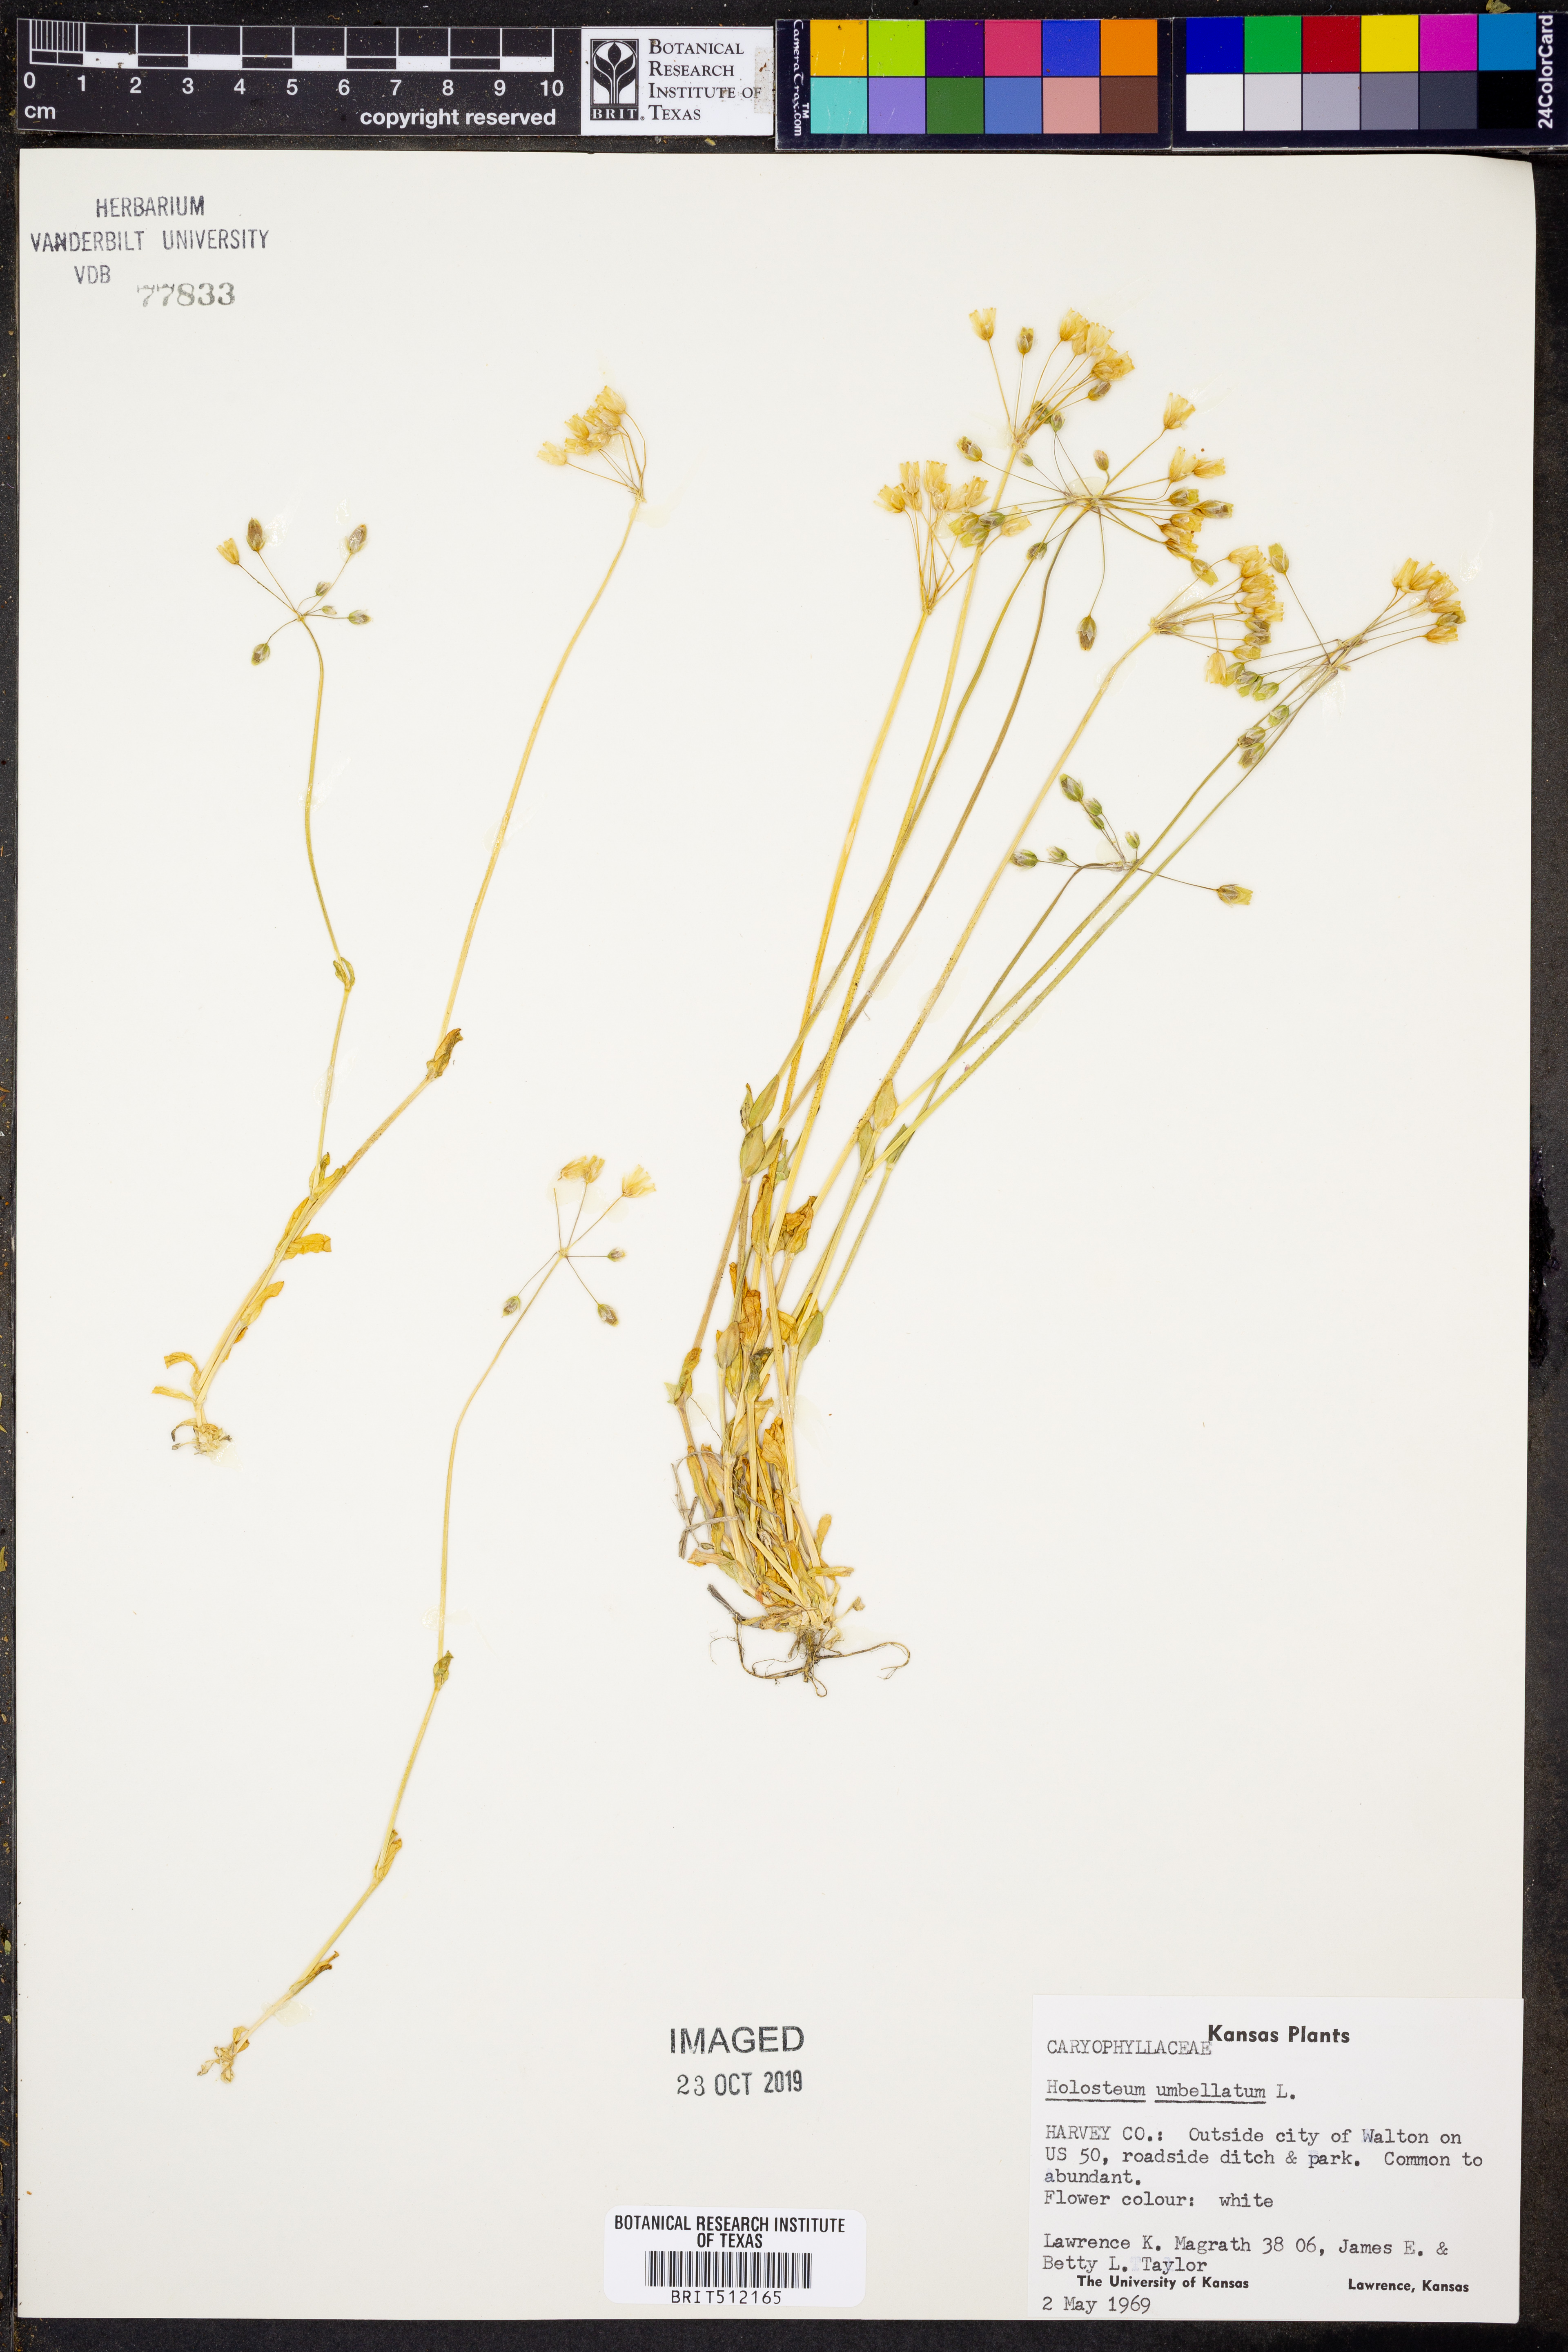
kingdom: Plantae
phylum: Tracheophyta
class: Magnoliopsida
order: Caryophyllales
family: Caryophyllaceae
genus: Holosteum
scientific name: Holosteum umbellatum
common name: Jagged chickweed
